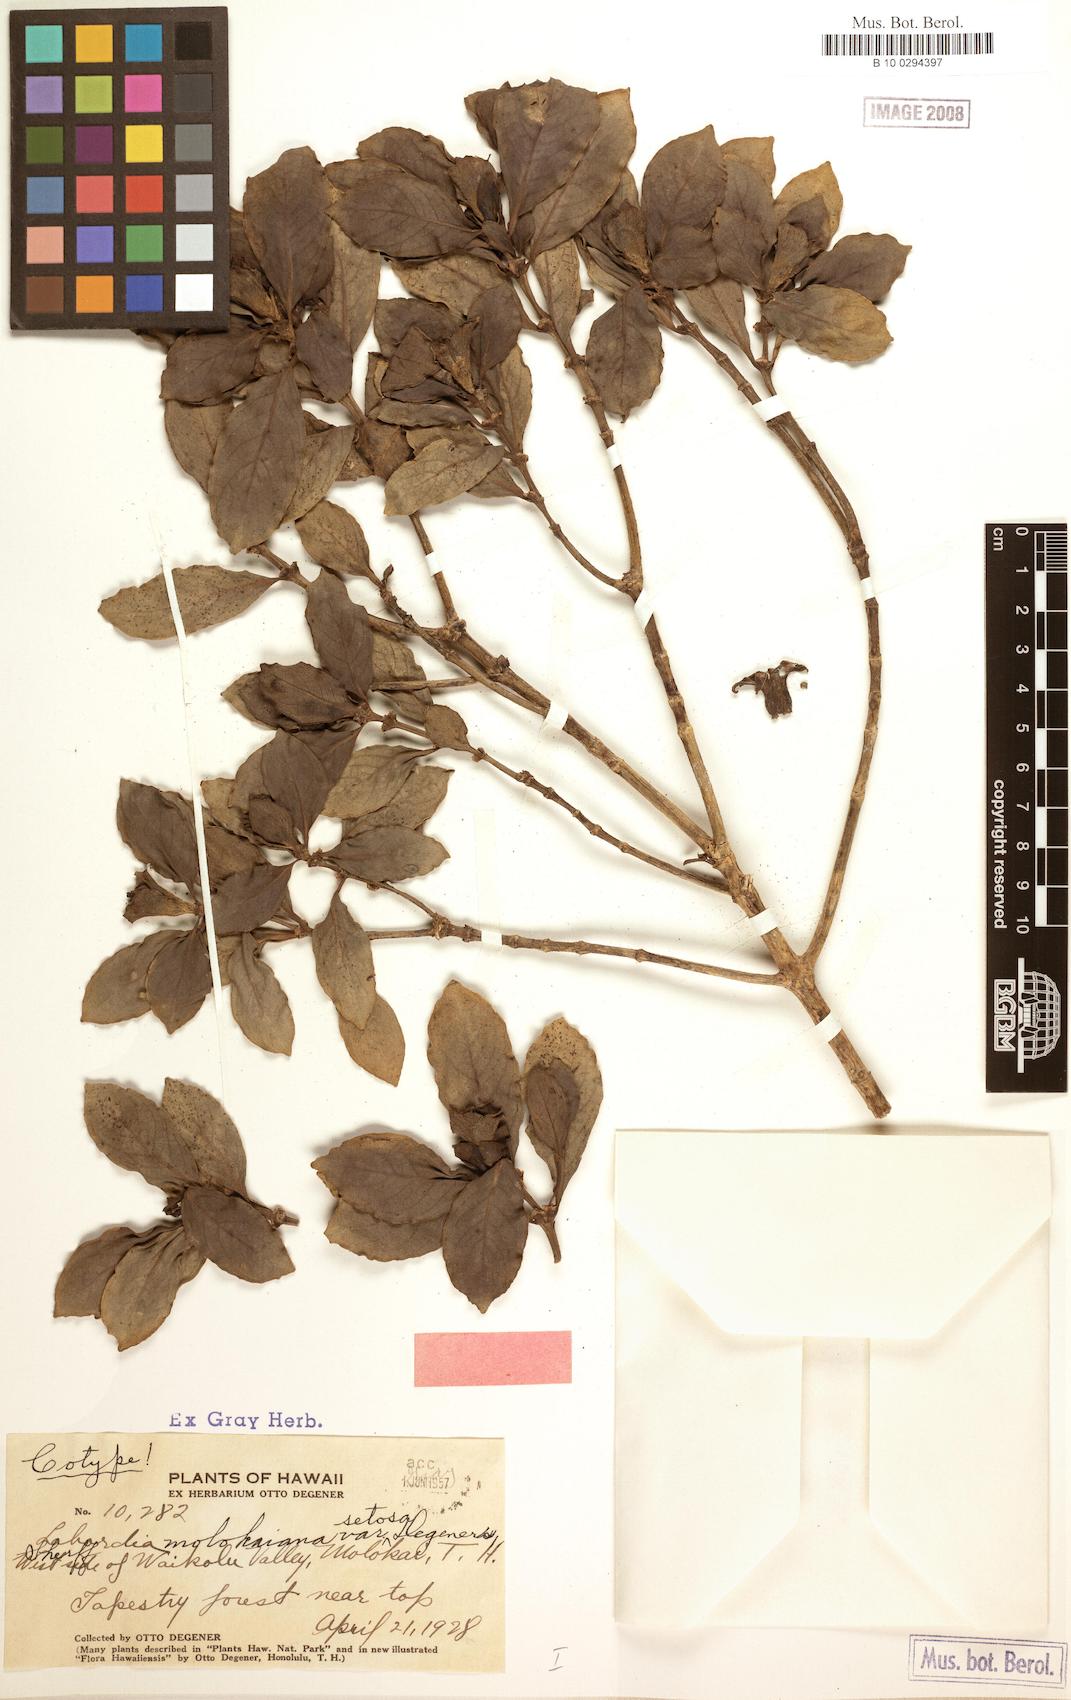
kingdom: Plantae
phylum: Tracheophyta
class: Magnoliopsida
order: Gentianales
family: Loganiaceae
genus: Geniostoma
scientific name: Geniostoma waiolani
